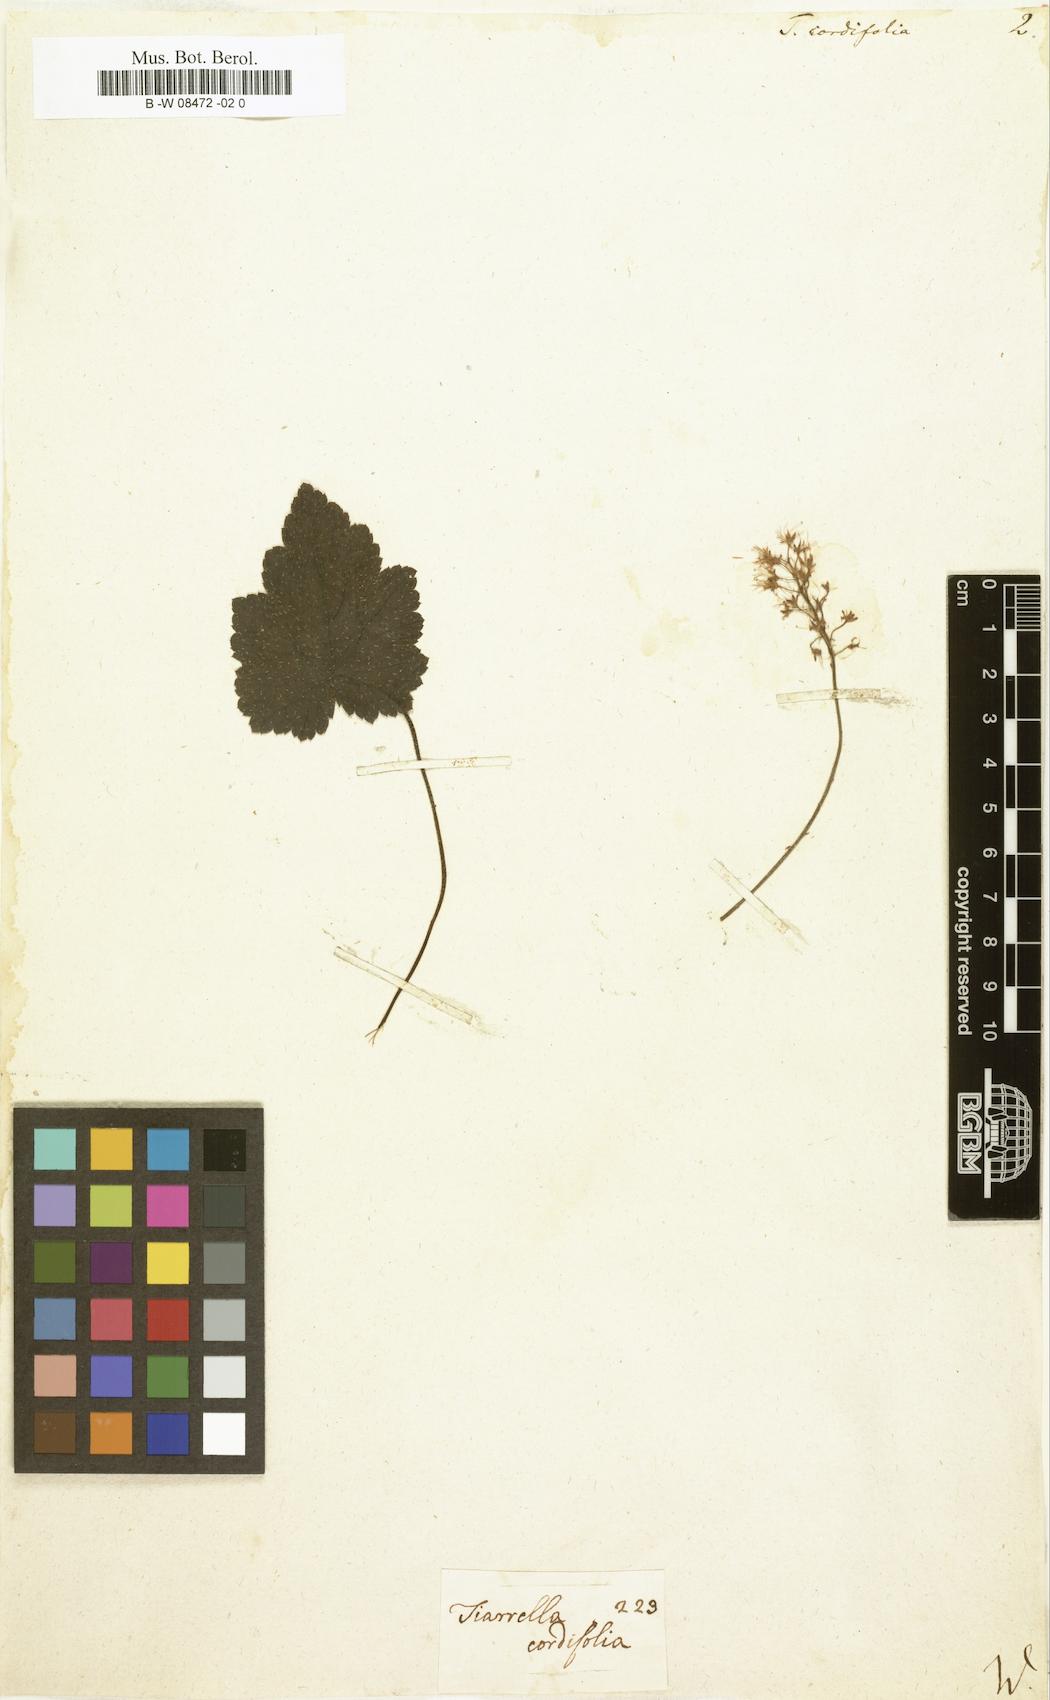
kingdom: Plantae
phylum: Tracheophyta
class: Magnoliopsida
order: Saxifragales
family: Saxifragaceae
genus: Tiarella
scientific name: Tiarella cordifolia
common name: Foamflower
